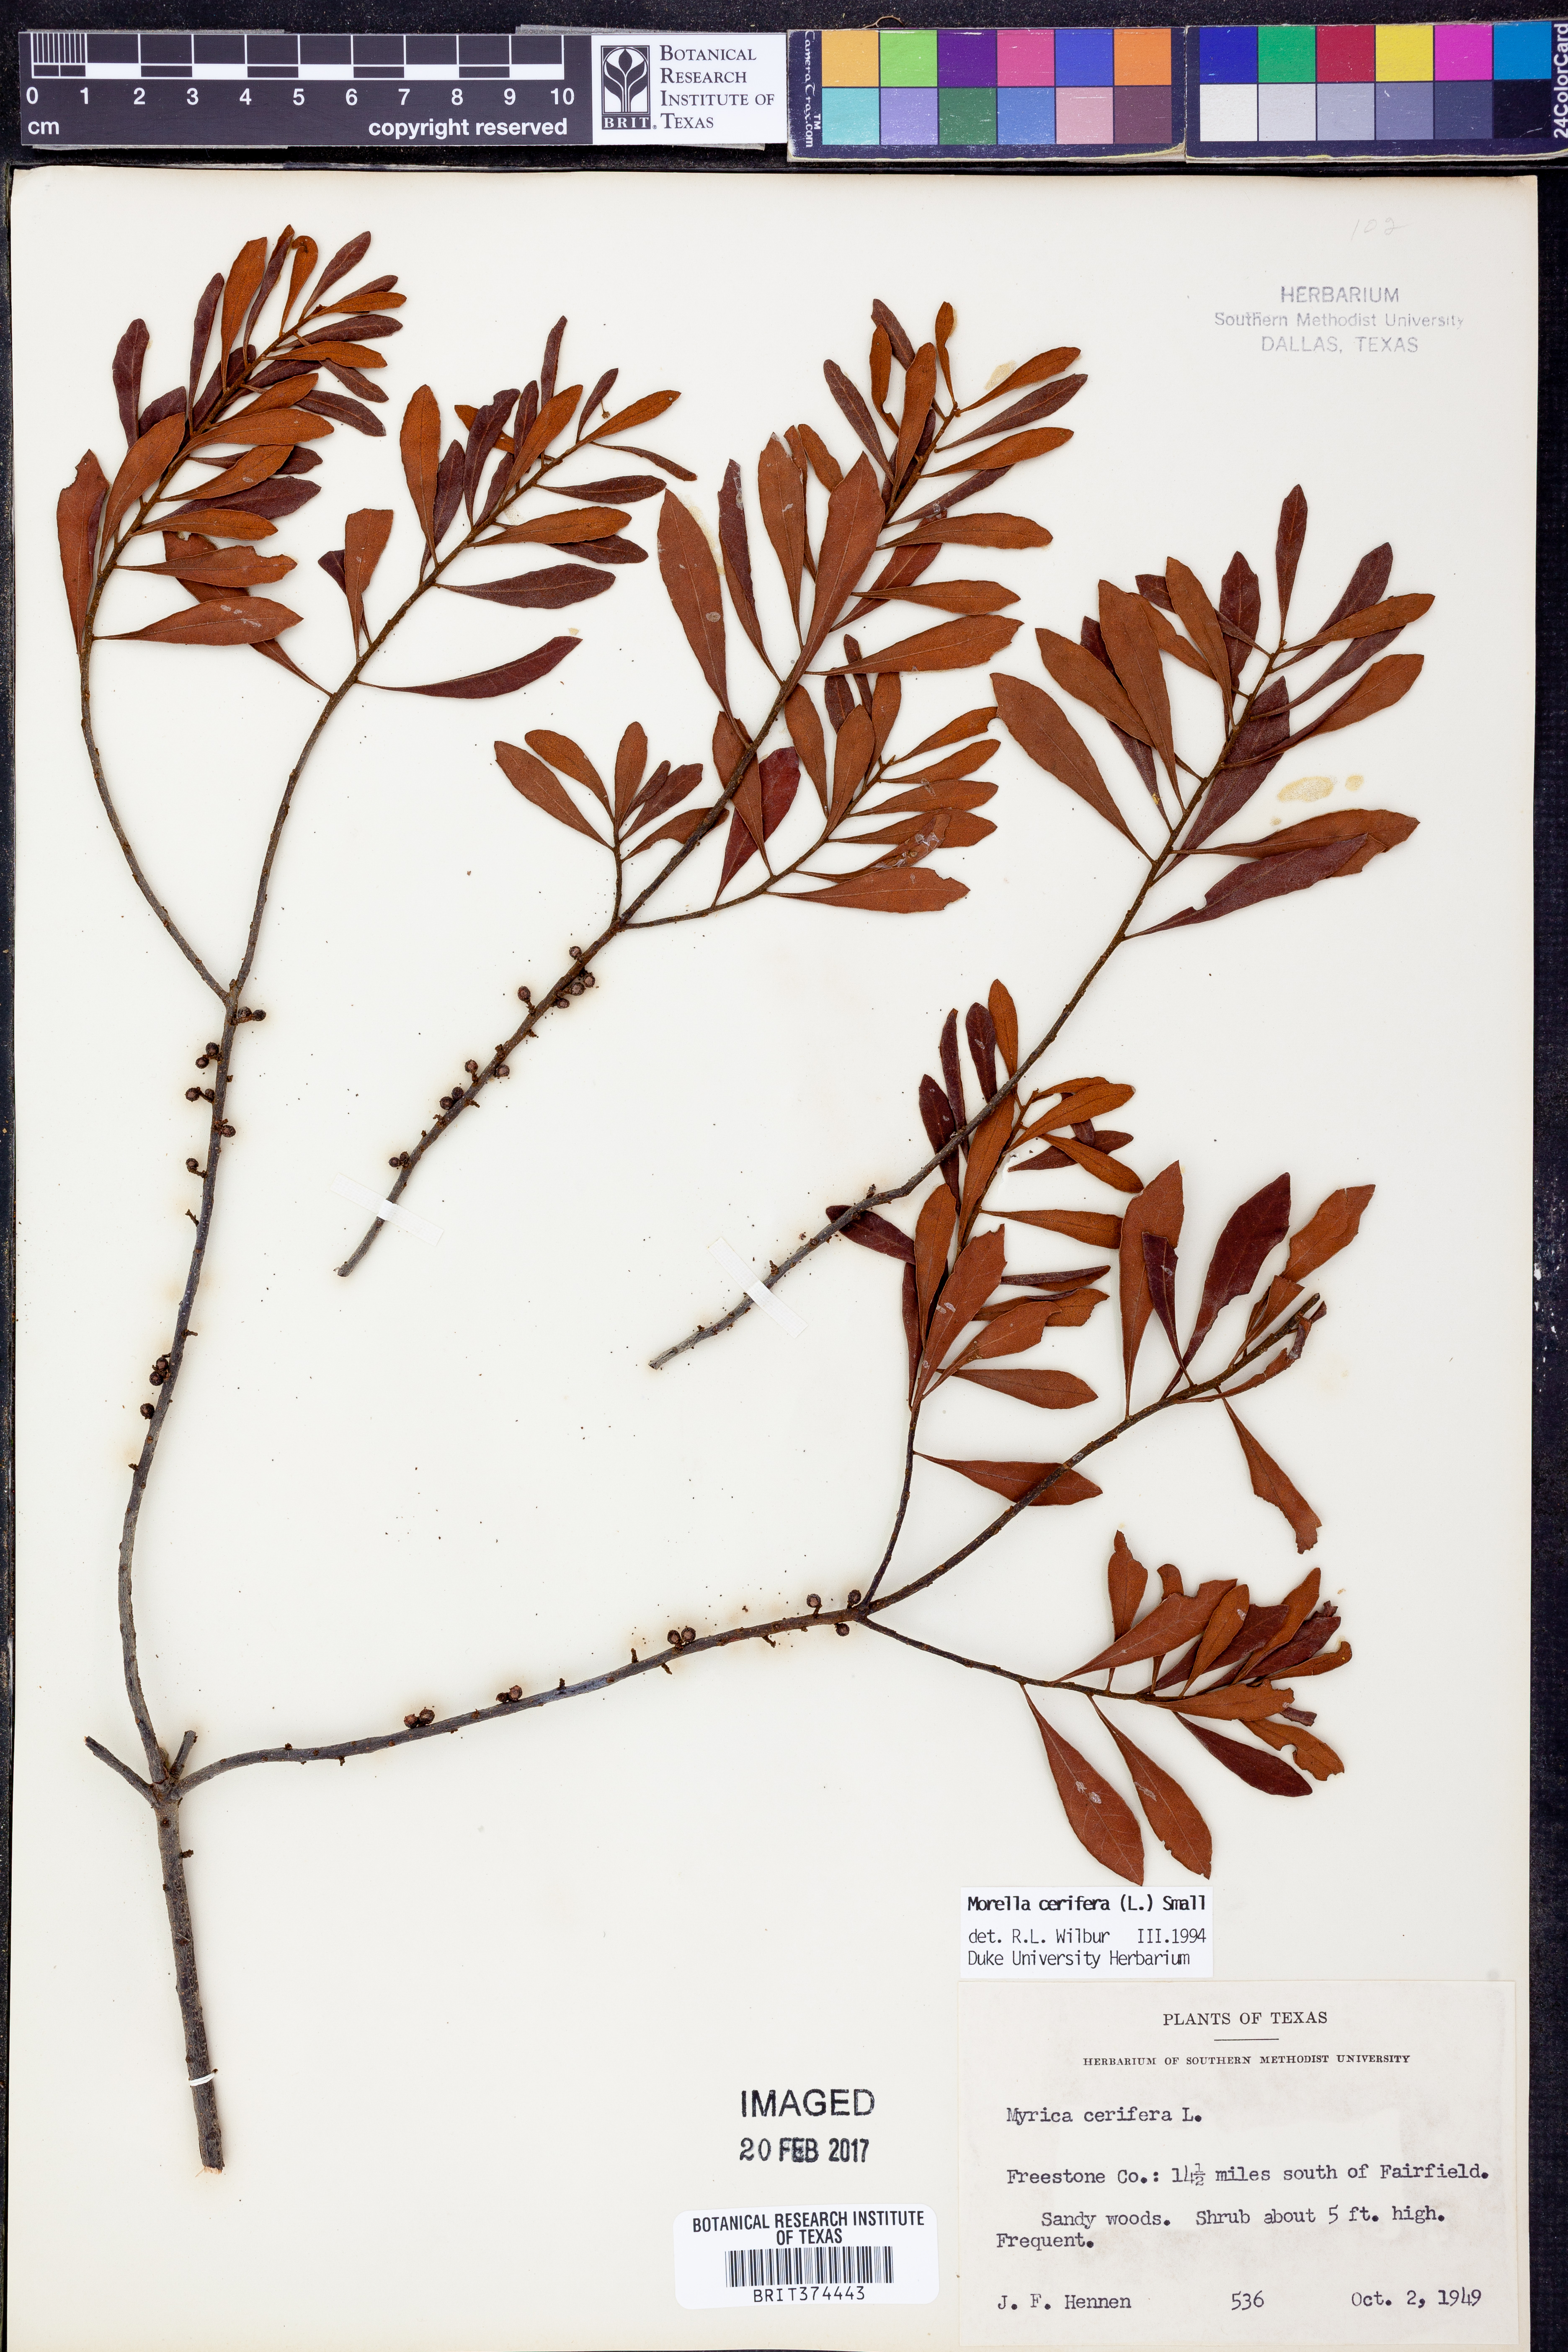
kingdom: Plantae
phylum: Tracheophyta
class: Magnoliopsida
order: Fagales
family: Myricaceae
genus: Morella
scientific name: Morella cerifera
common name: Wax myrtle
